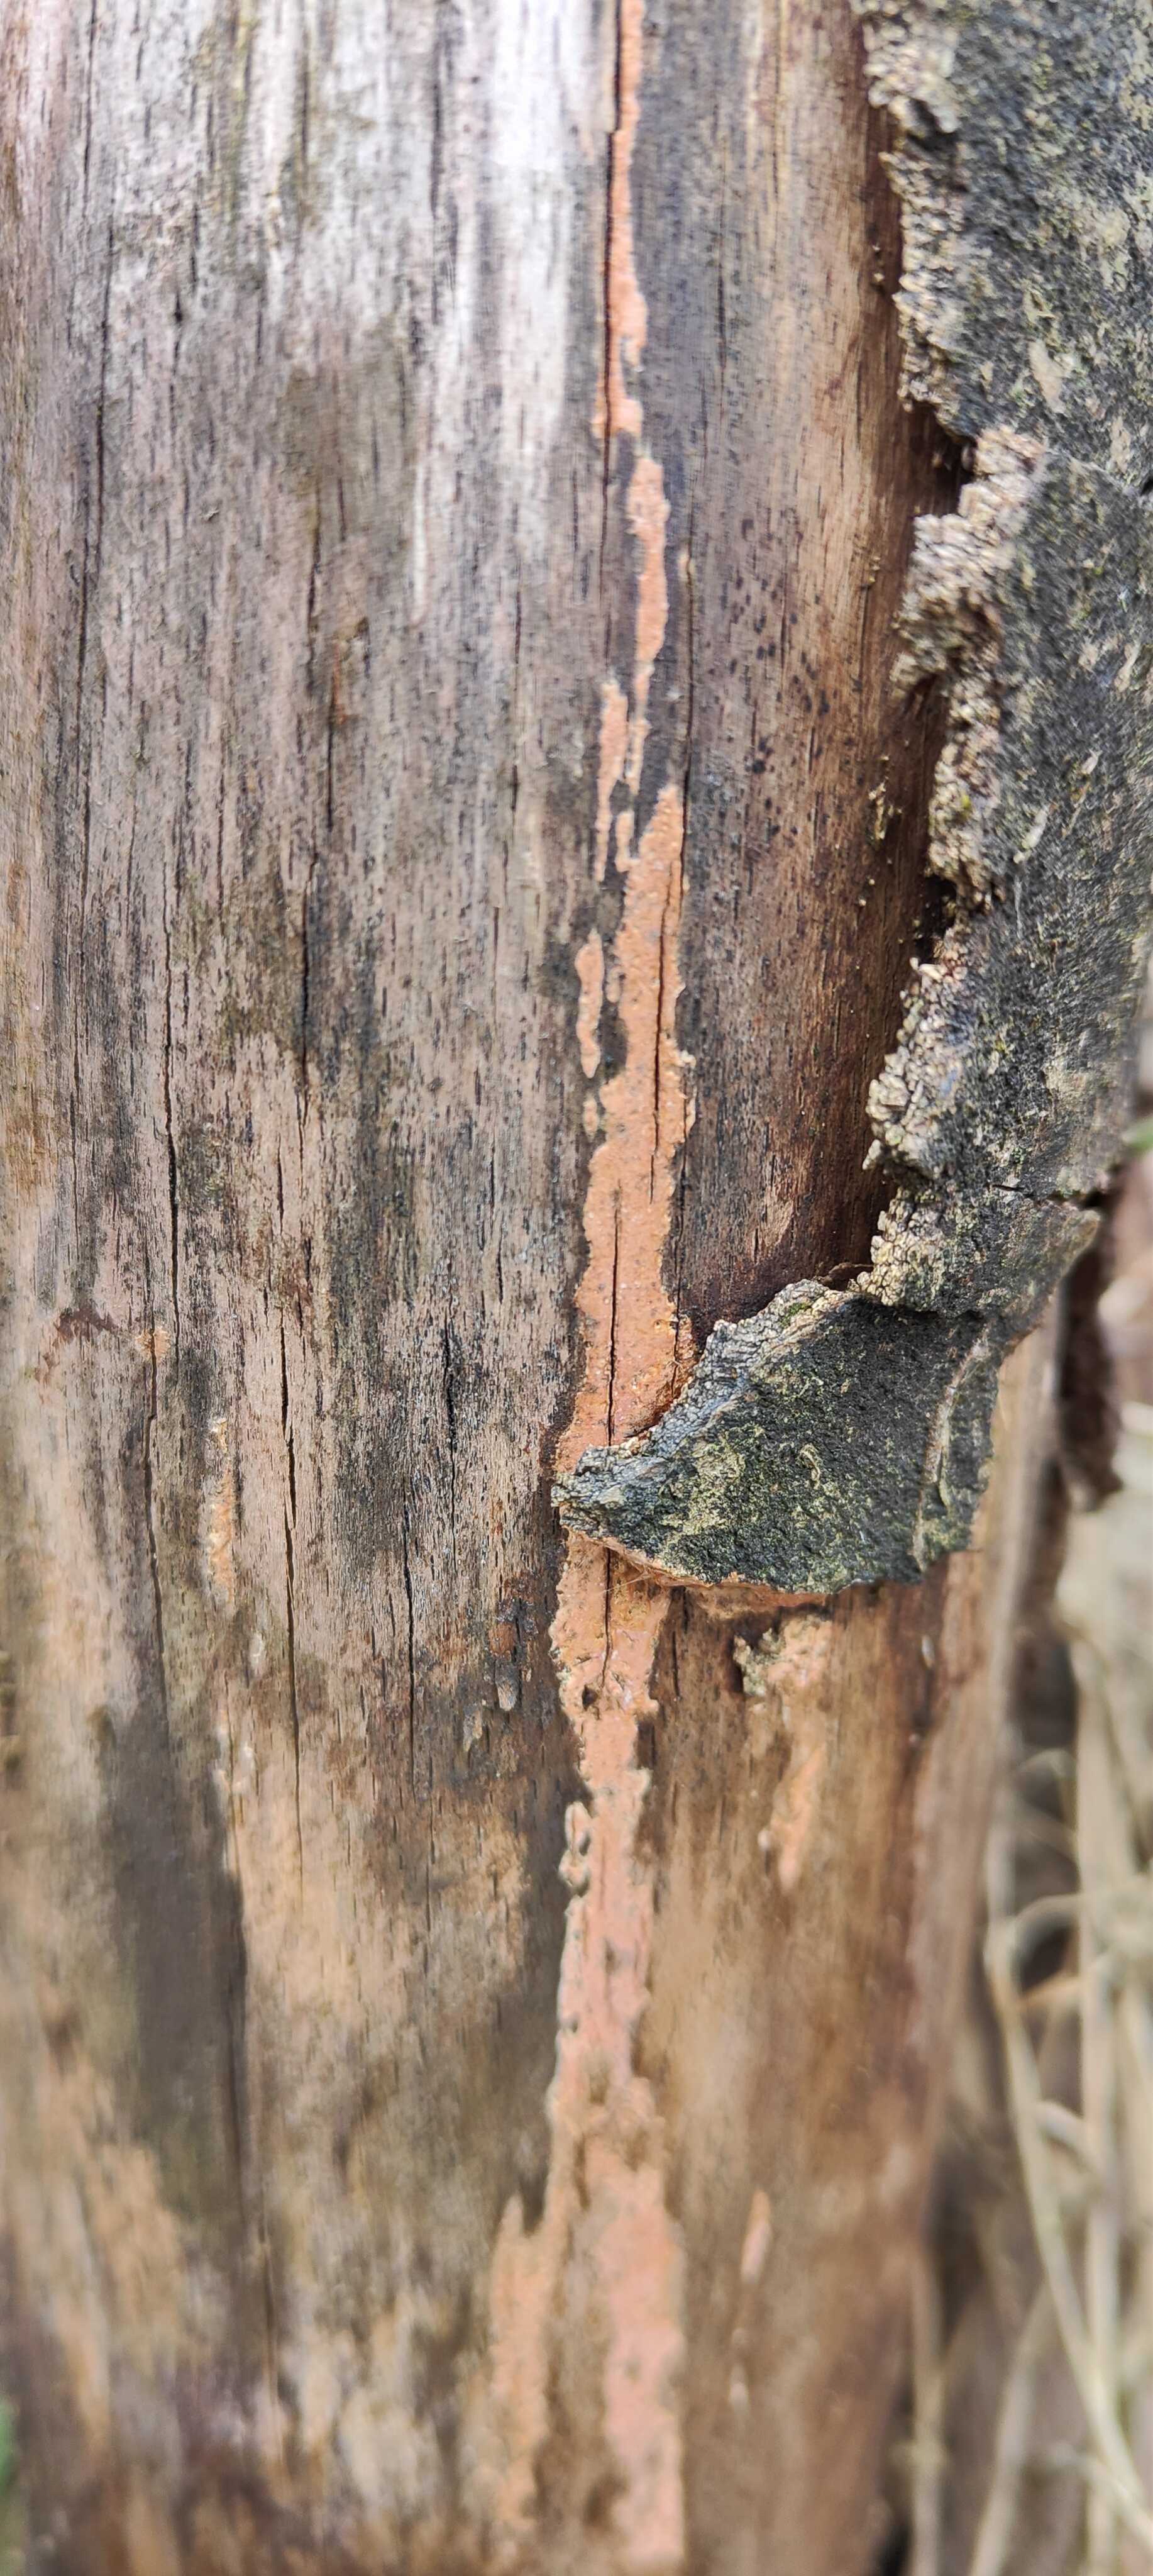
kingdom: Fungi
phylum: Basidiomycota
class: Agaricomycetes
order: Russulales
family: Peniophoraceae
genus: Peniophora
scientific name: Peniophora incarnata
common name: laksefarvet voksskind
